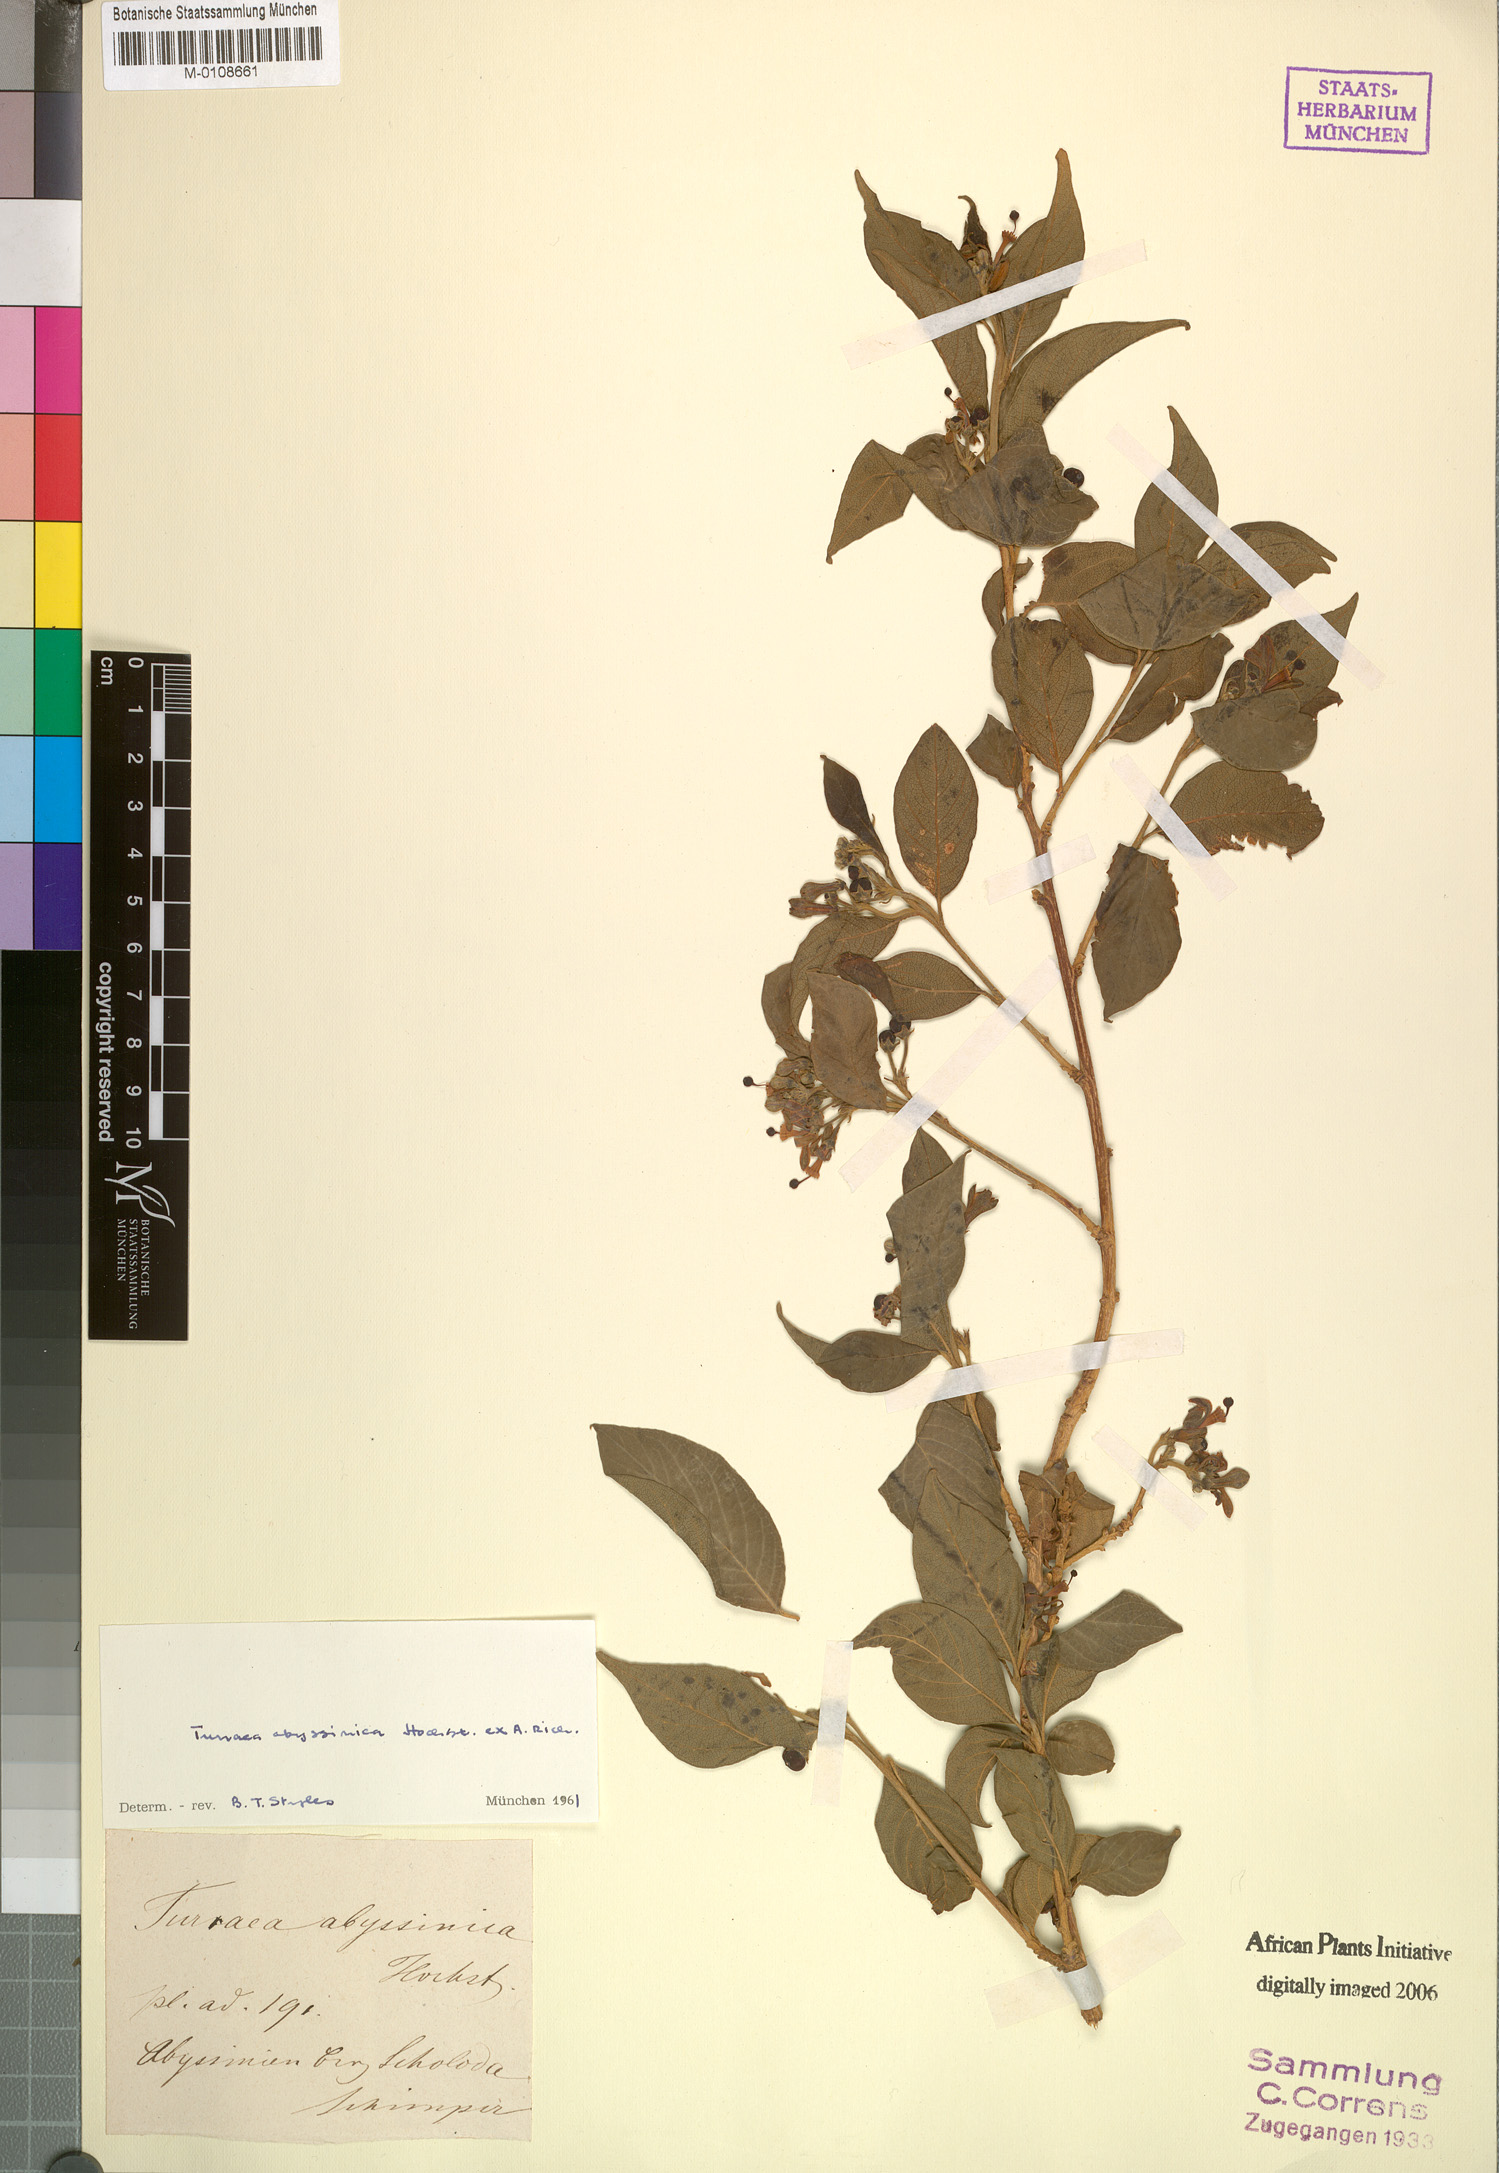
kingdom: Plantae
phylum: Tracheophyta
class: Magnoliopsida
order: Sapindales
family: Meliaceae
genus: Turraea
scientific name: Turraea abyssinica
